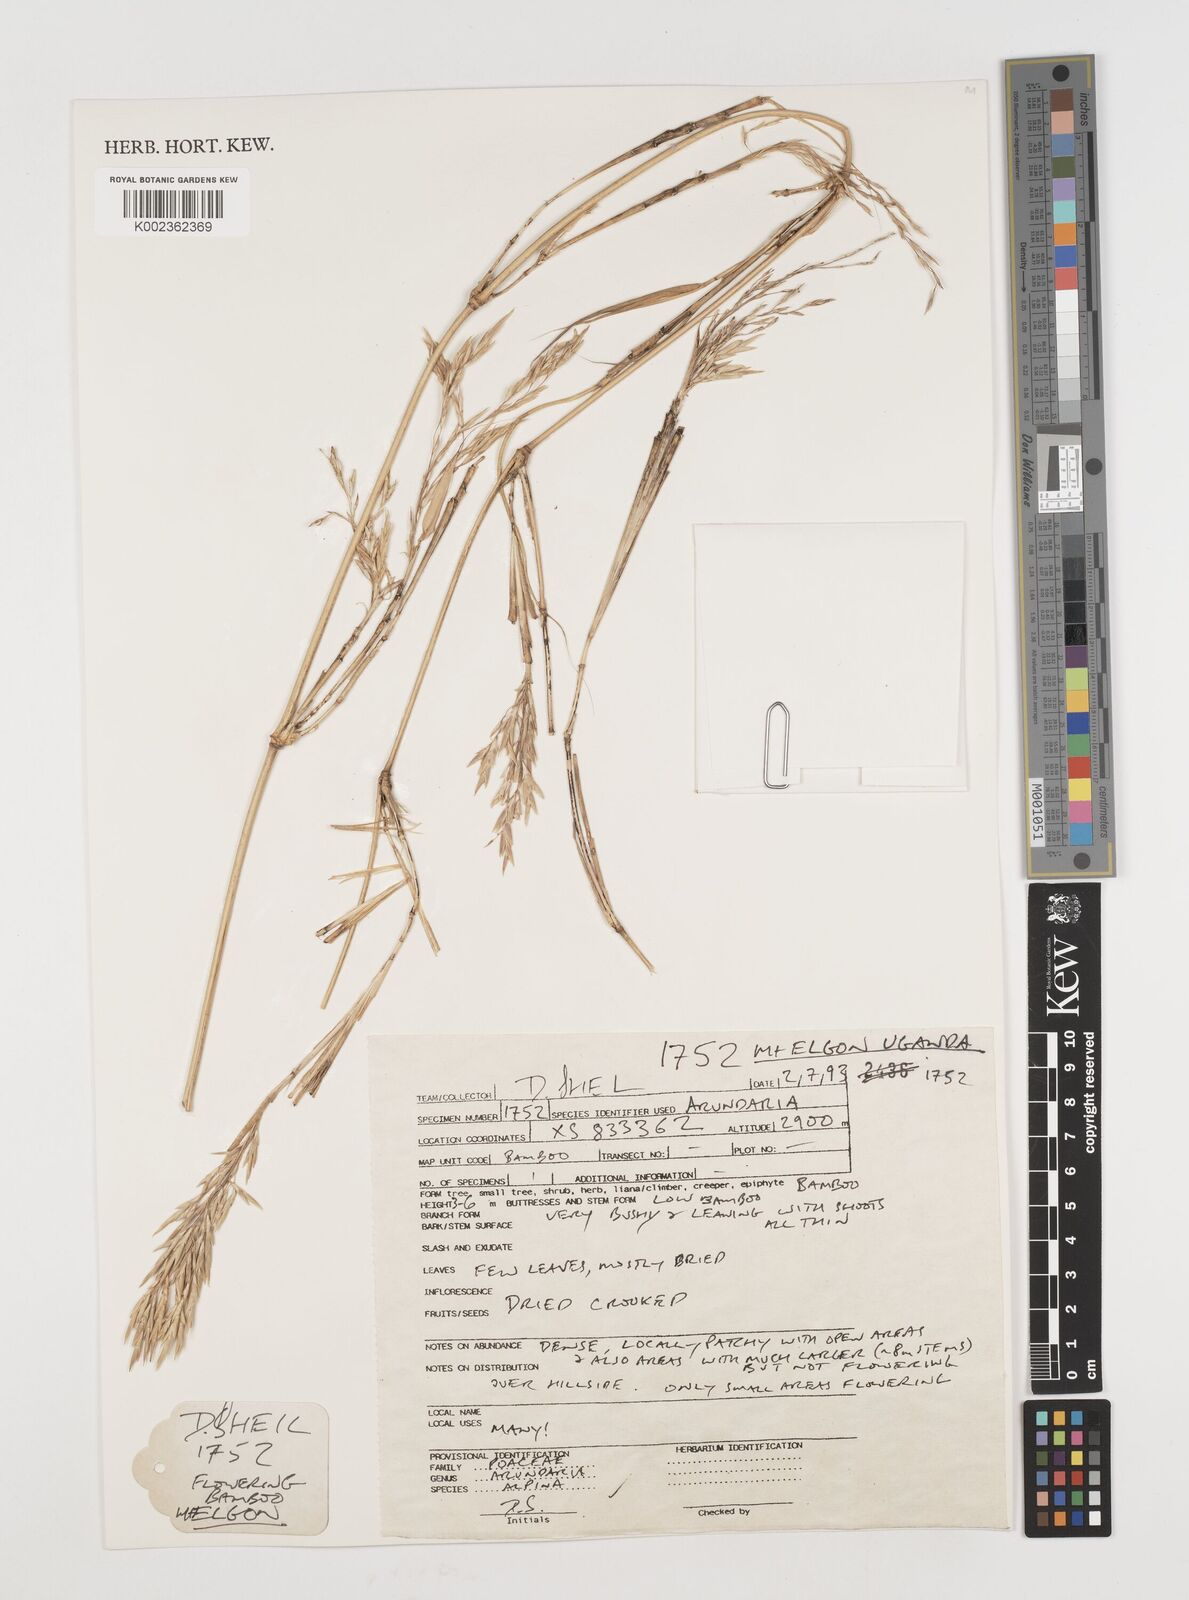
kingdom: Plantae
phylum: Tracheophyta
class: Liliopsida
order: Poales
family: Poaceae
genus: Oldeania
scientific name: Oldeania alpina
